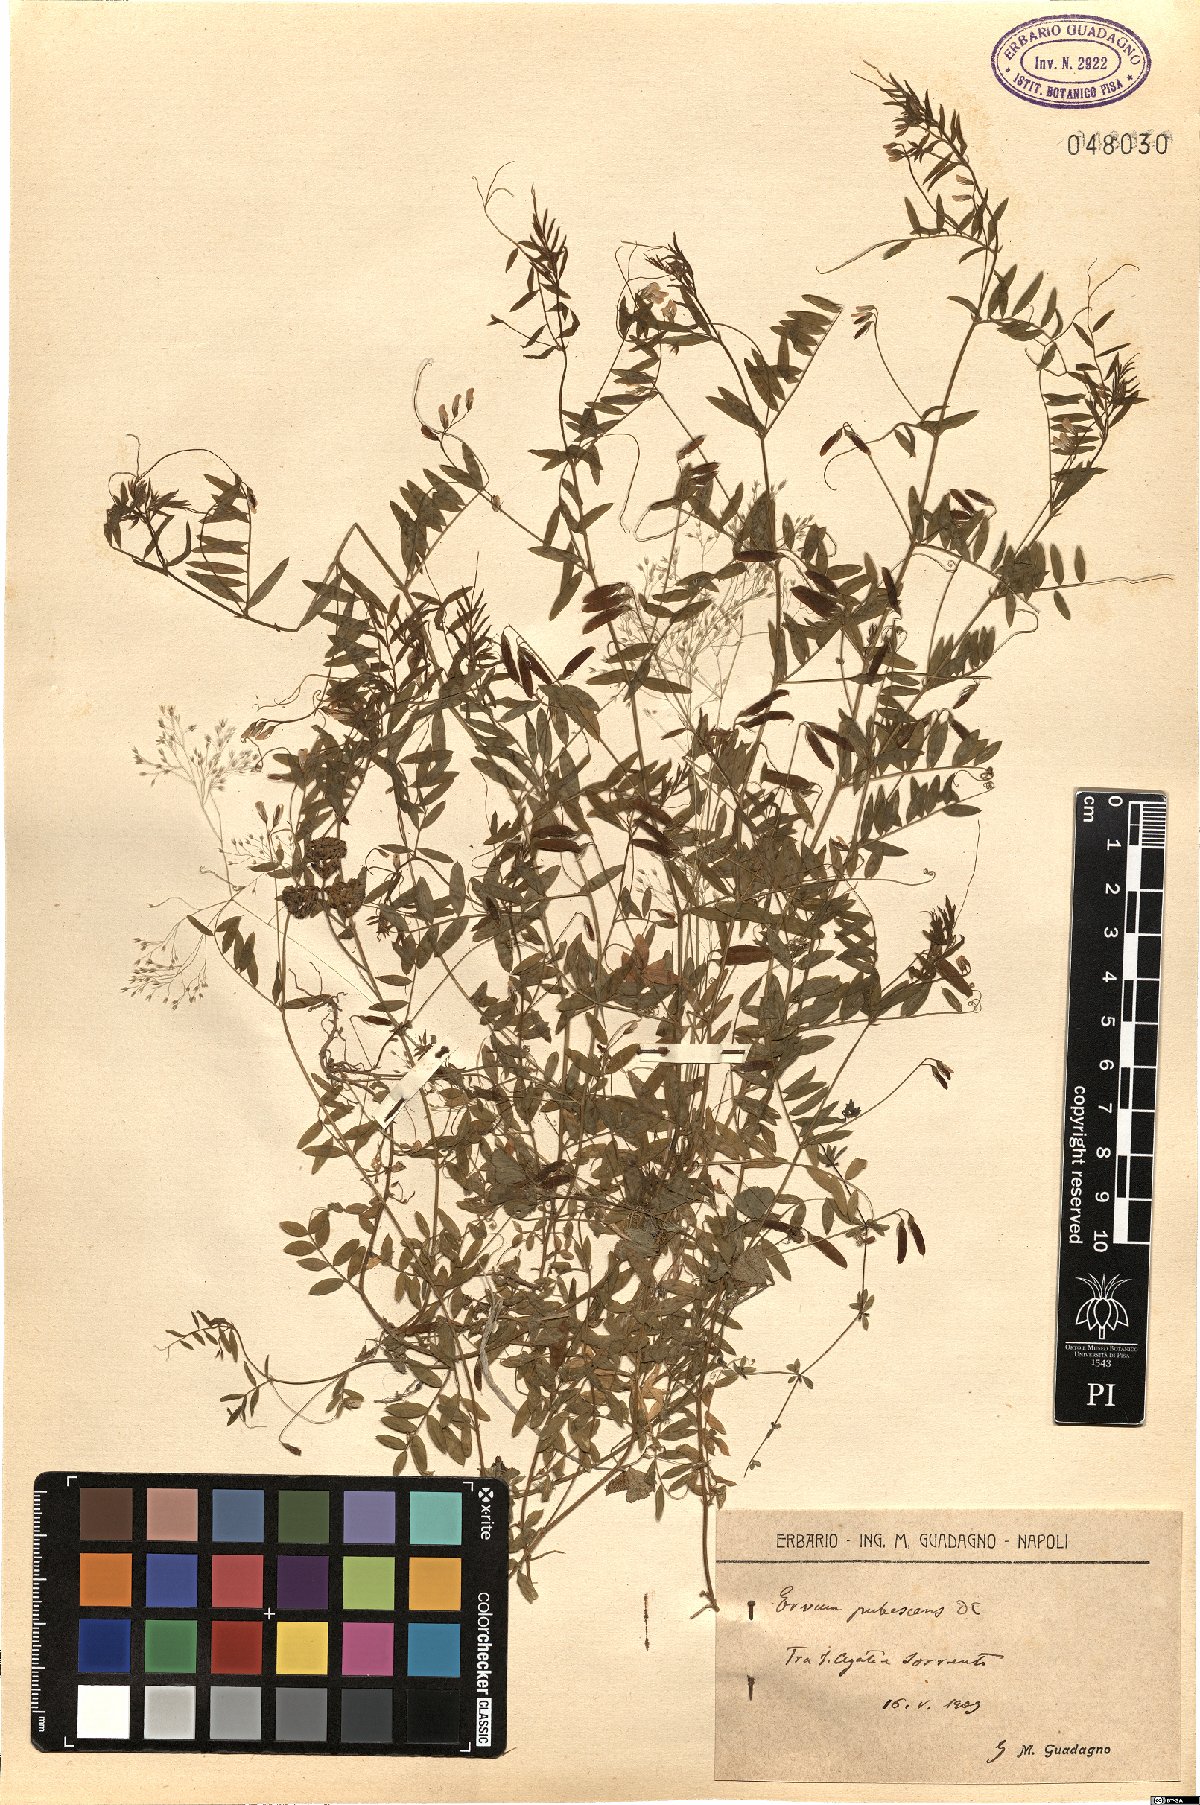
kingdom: Plantae
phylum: Tracheophyta
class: Magnoliopsida
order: Fabales
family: Fabaceae
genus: Vicia
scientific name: Vicia pubescens
